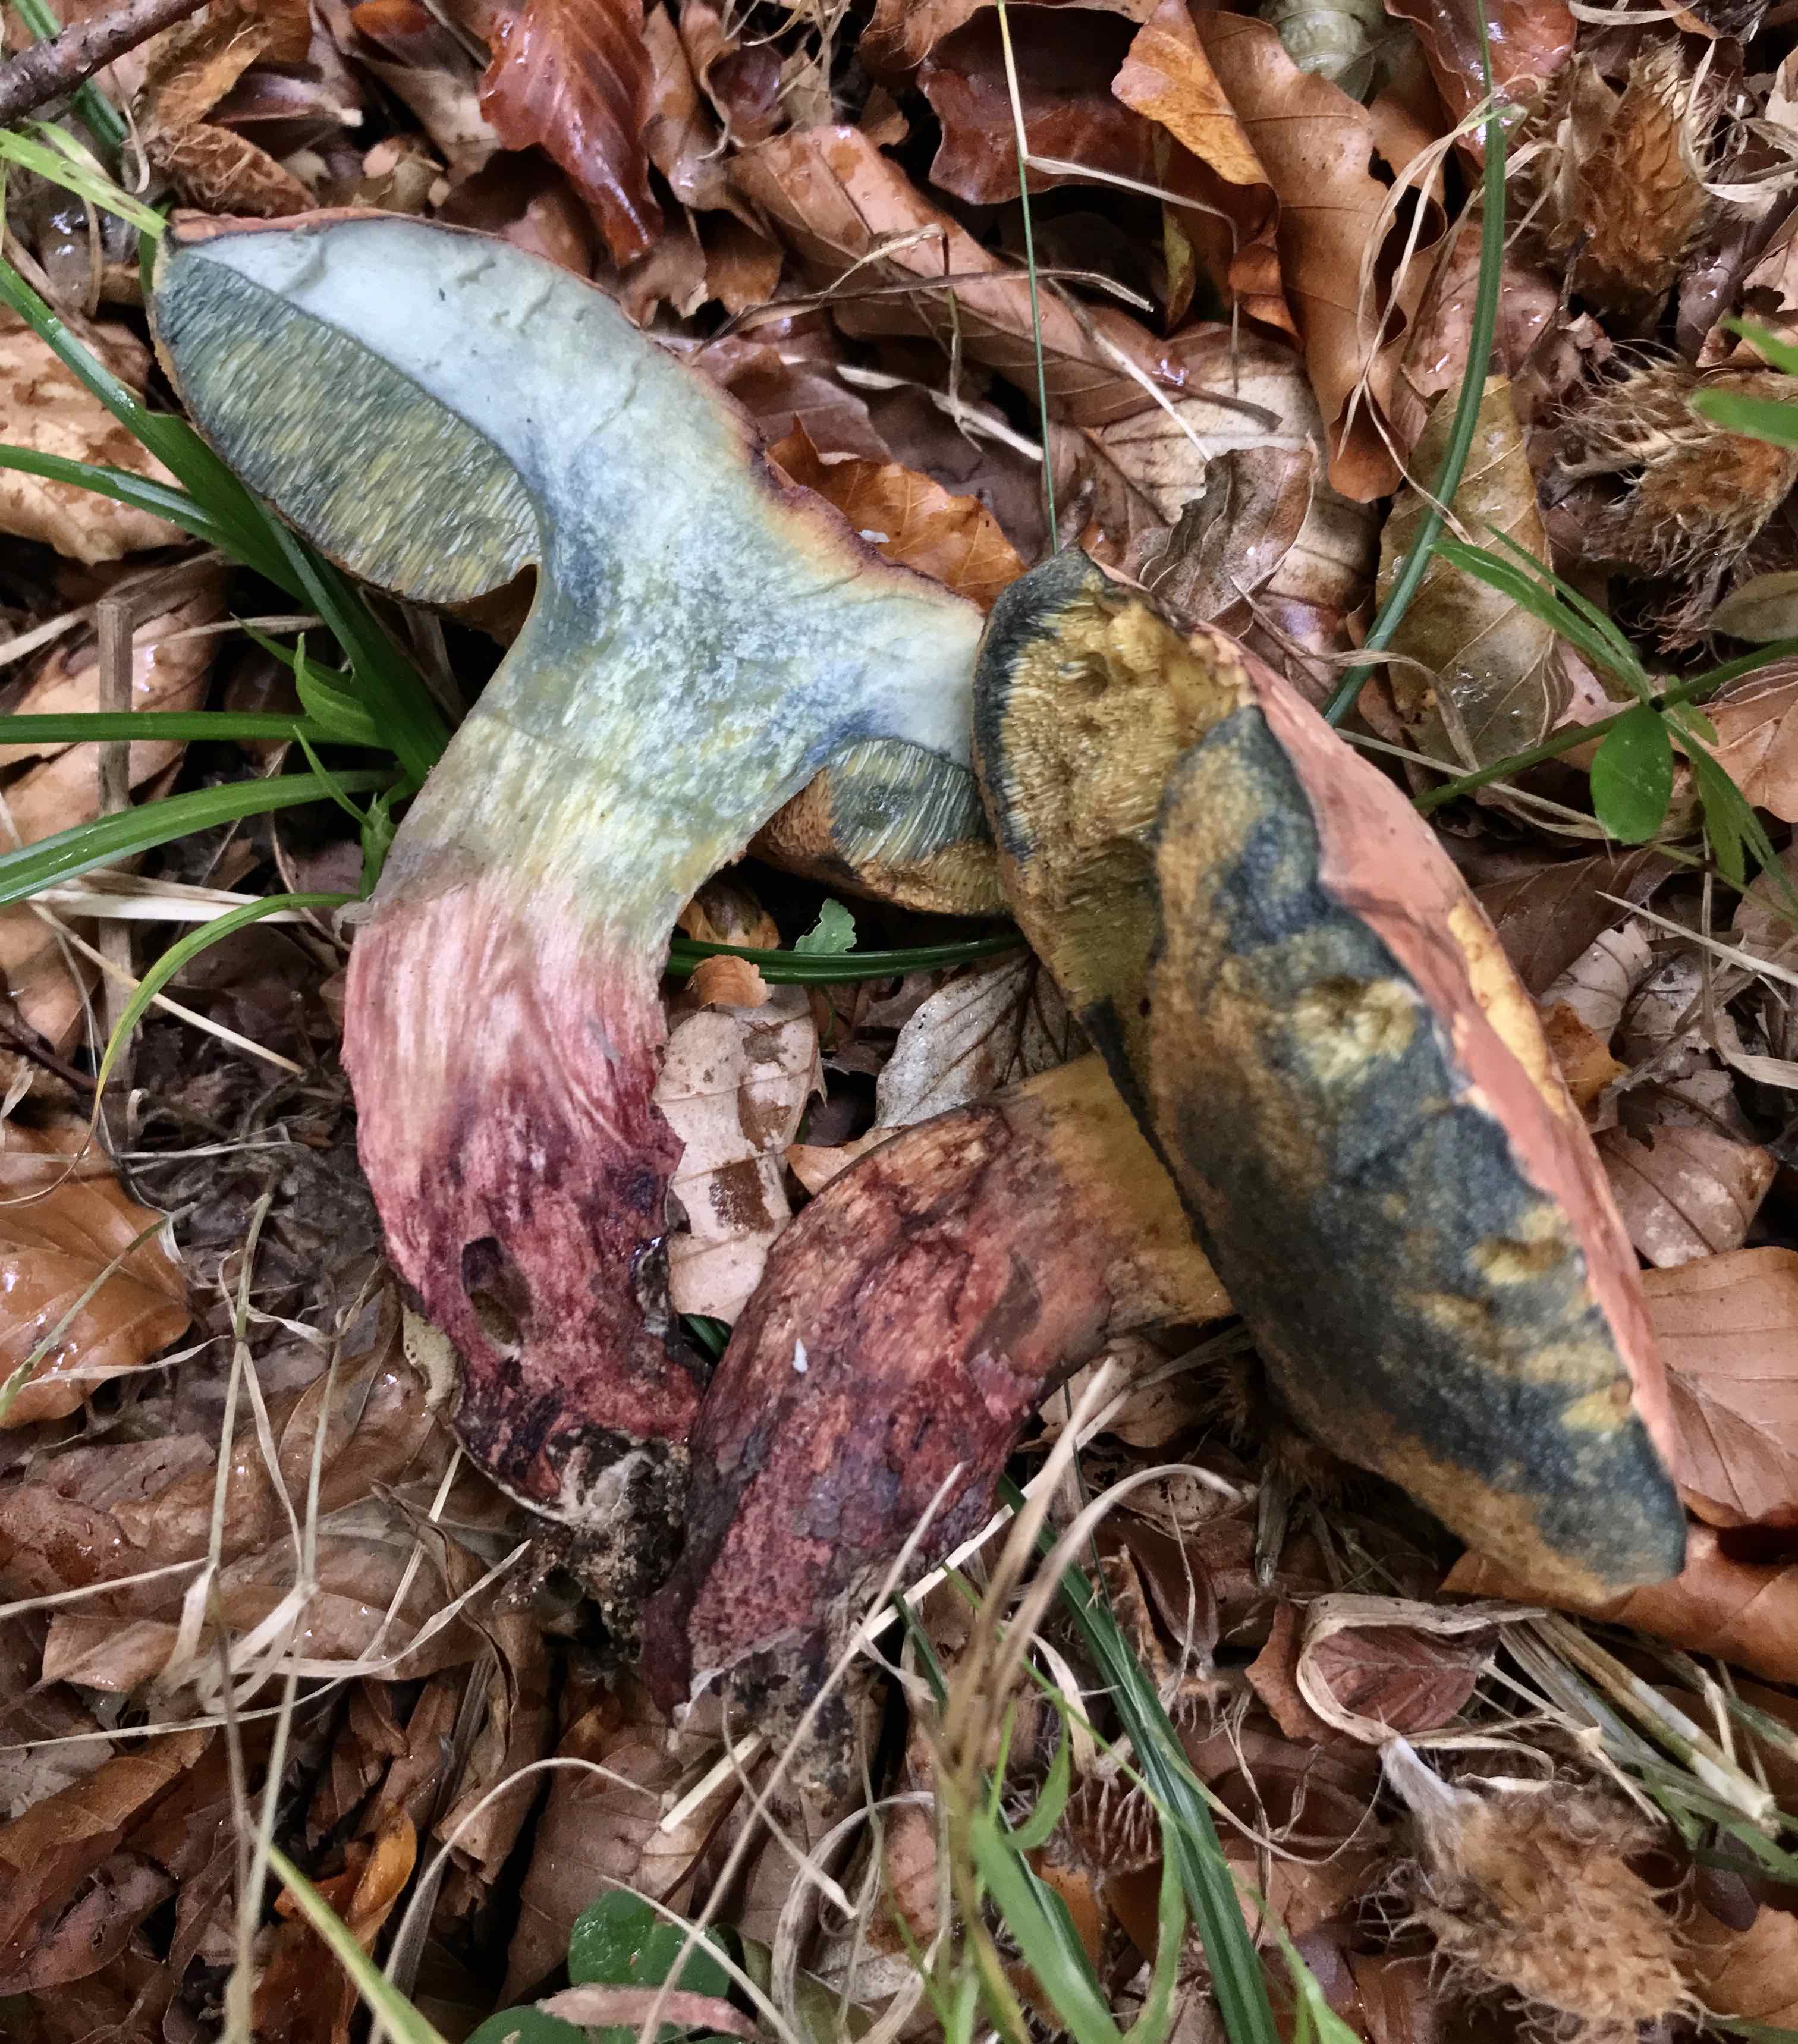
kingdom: Fungi
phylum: Basidiomycota
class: Agaricomycetes
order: Boletales
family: Boletaceae
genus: Suillellus
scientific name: Suillellus queletii
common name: glatstokket indigorørhat
